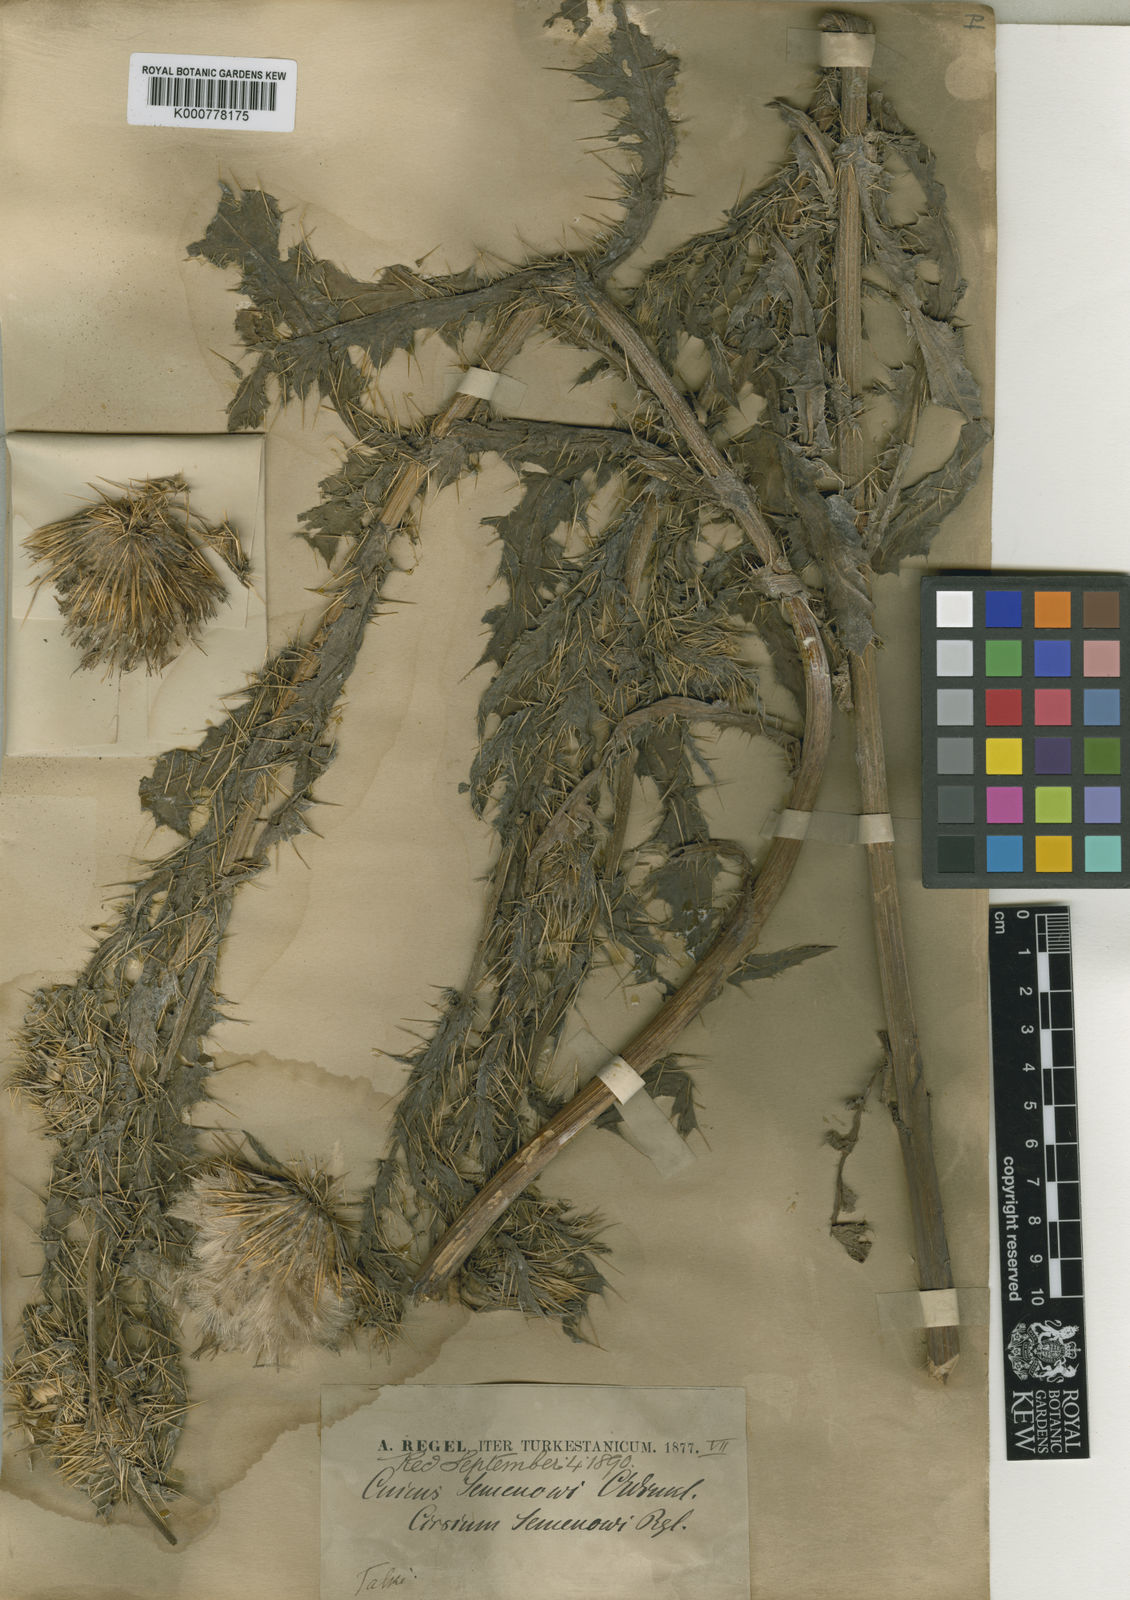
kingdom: Plantae
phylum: Tracheophyta
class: Magnoliopsida
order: Asterales
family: Asteraceae
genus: Cirsium
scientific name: Cirsium
